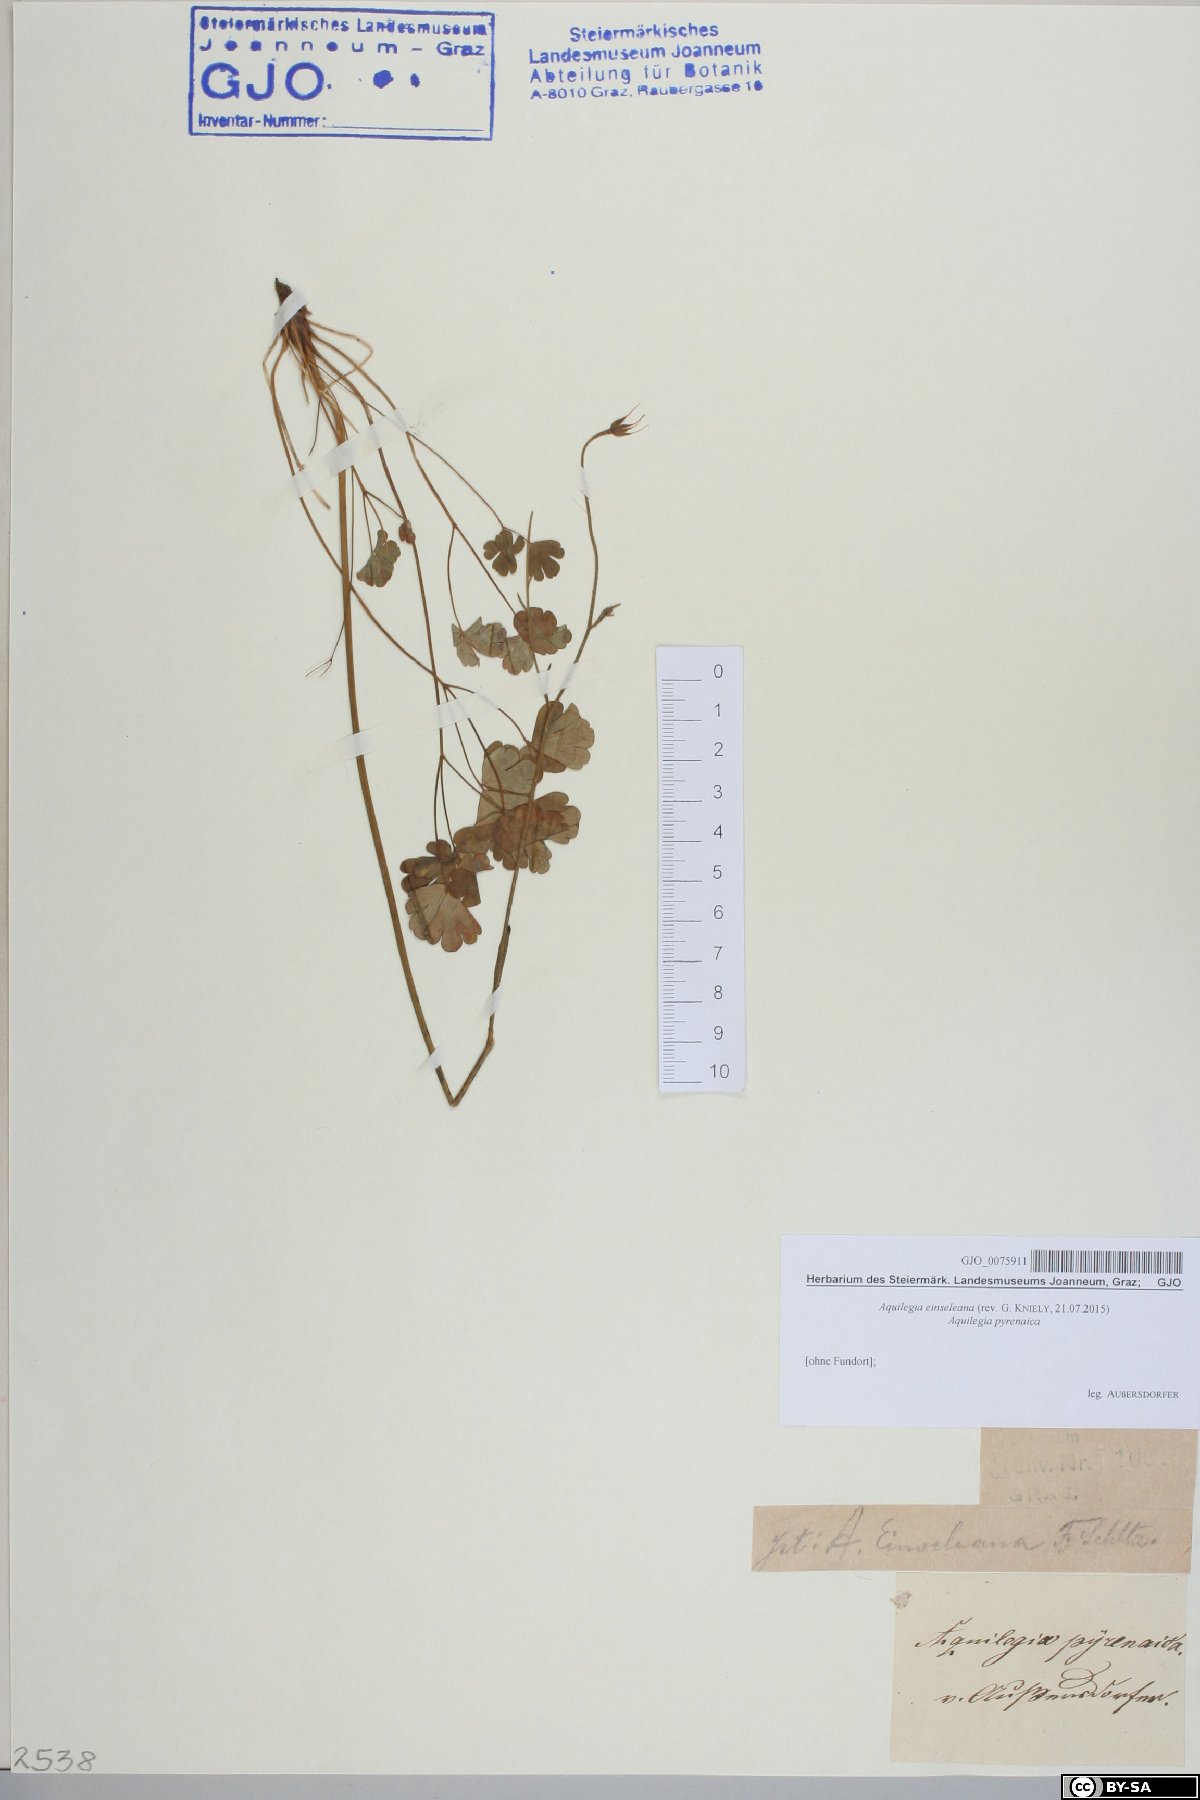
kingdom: Plantae
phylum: Tracheophyta
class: Magnoliopsida
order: Ranunculales
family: Ranunculaceae
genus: Aquilegia
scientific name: Aquilegia einseleana
